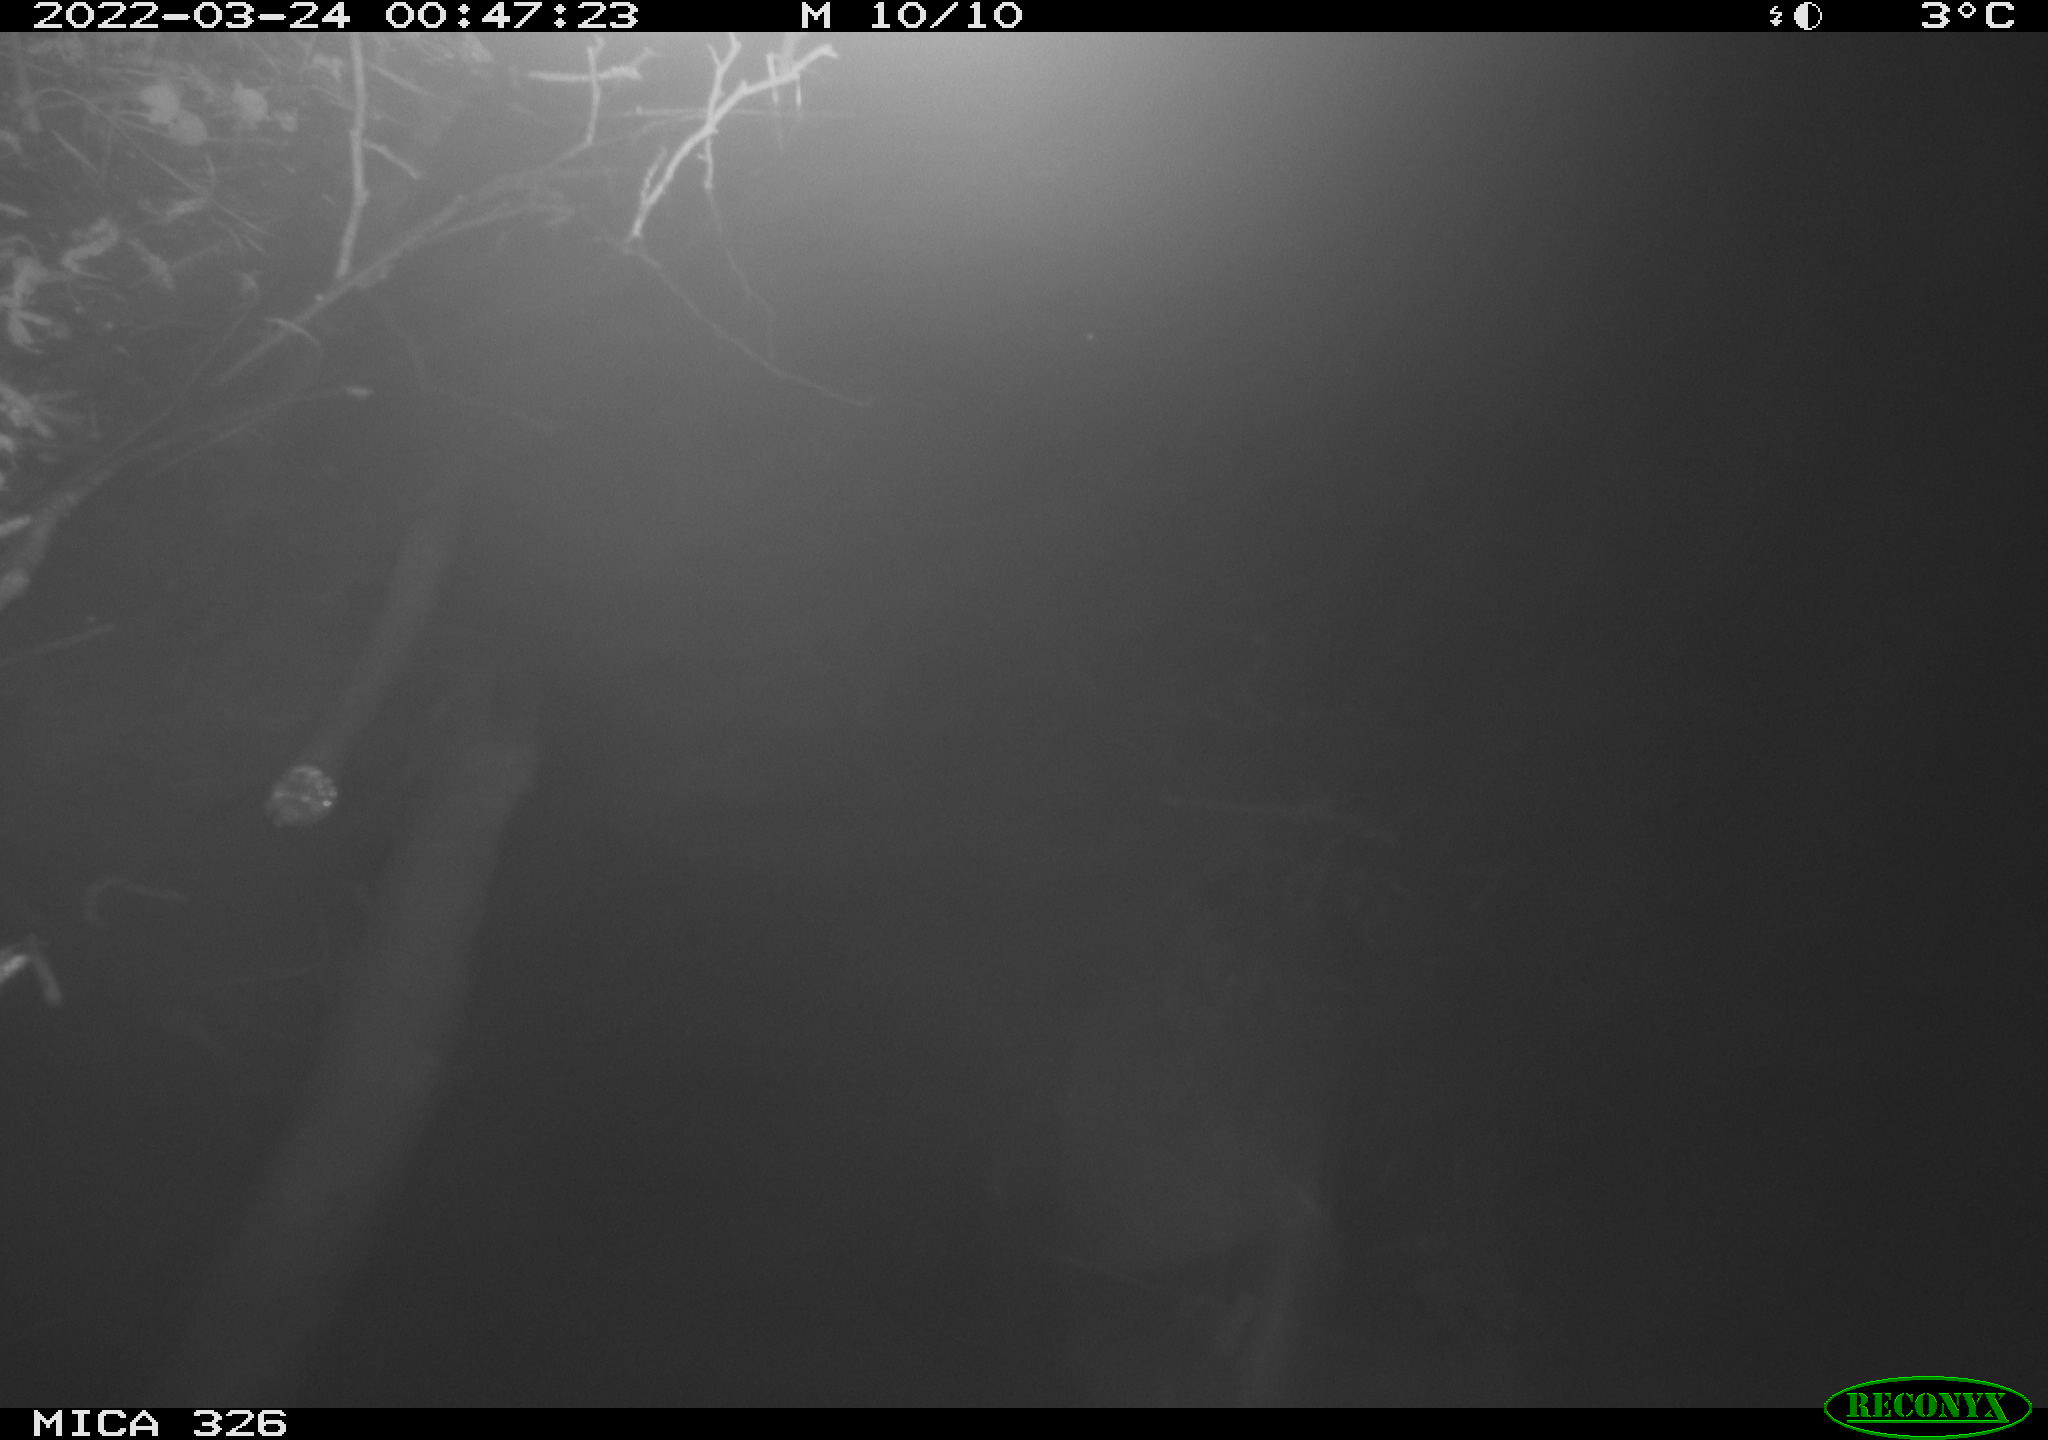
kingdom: Animalia
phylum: Chordata
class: Mammalia
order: Rodentia
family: Muridae
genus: Rattus
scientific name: Rattus norvegicus
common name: Brown rat
